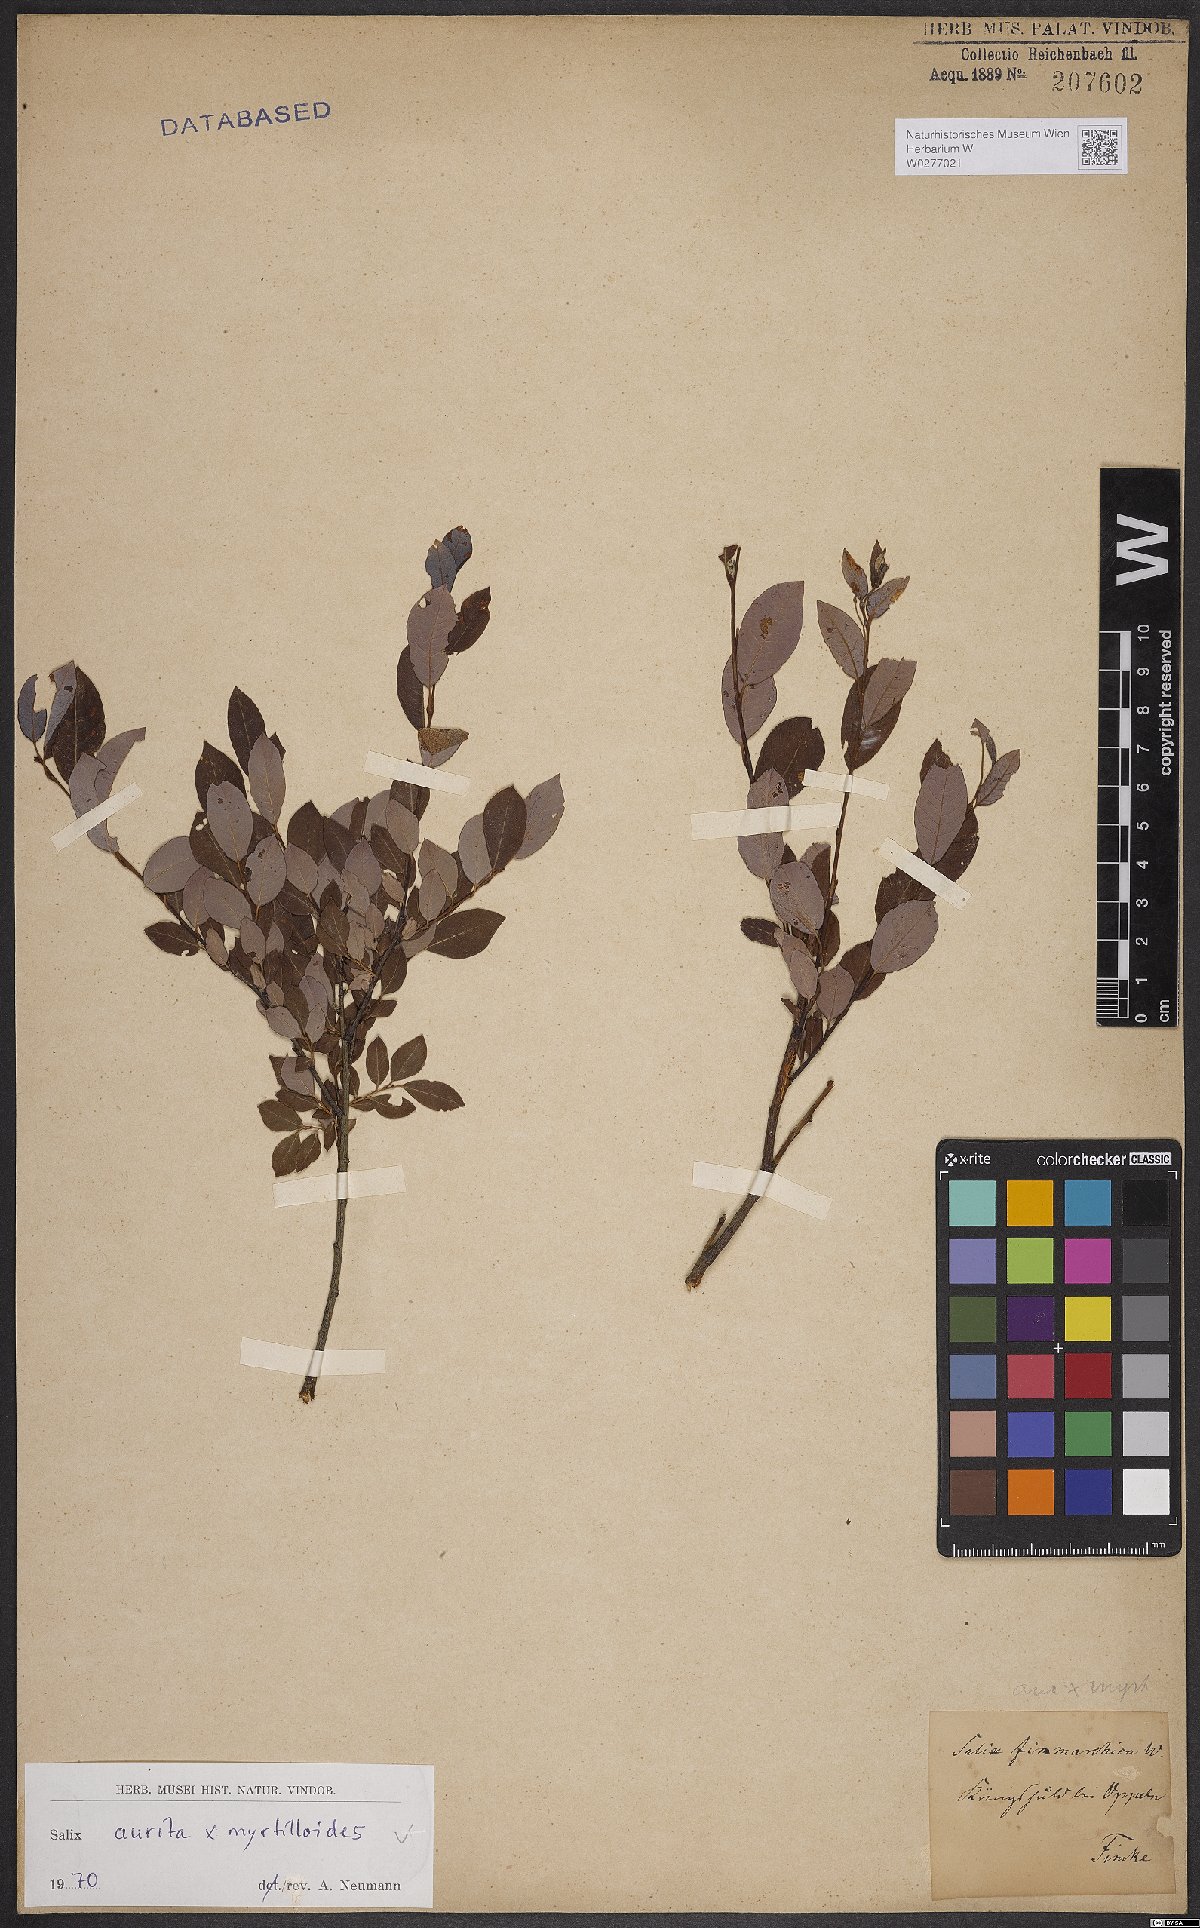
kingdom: Plantae
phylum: Tracheophyta
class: Magnoliopsida
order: Malpighiales
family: Salicaceae
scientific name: Salicaceae
